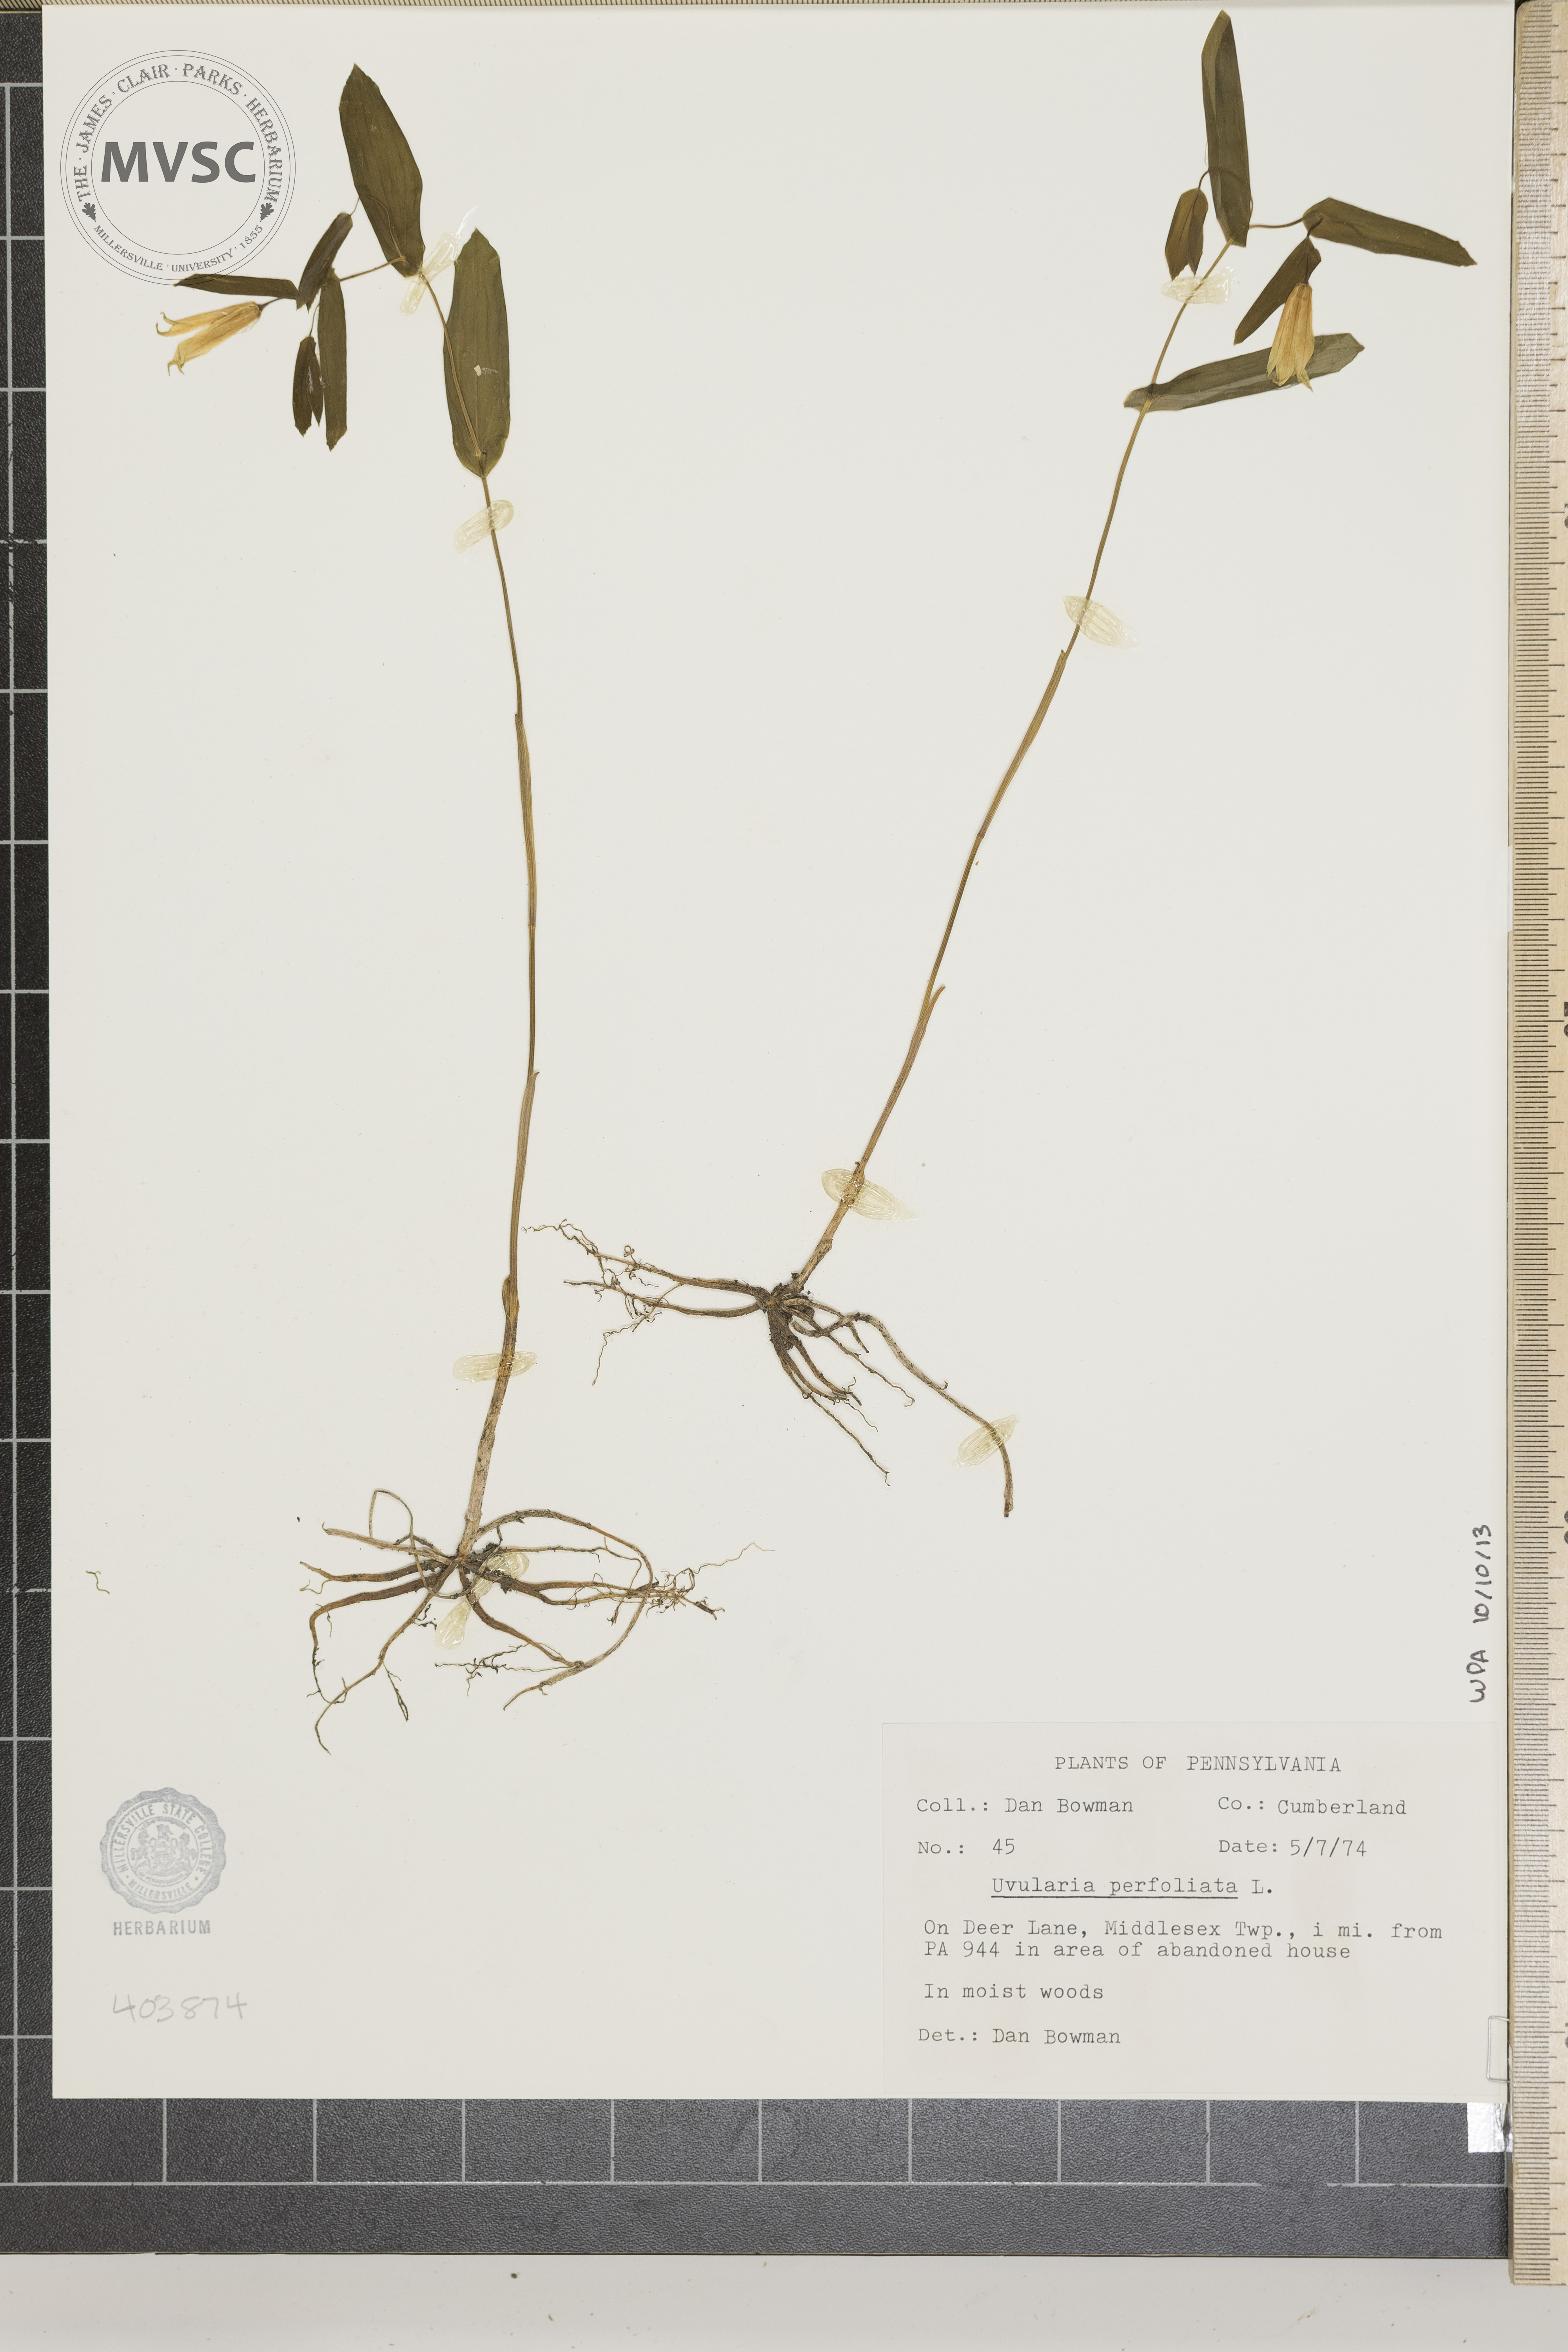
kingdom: Plantae
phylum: Tracheophyta
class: Liliopsida
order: Liliales
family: Colchicaceae
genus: Uvularia
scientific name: Uvularia perfoliata
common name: Perfoliate bellwort
